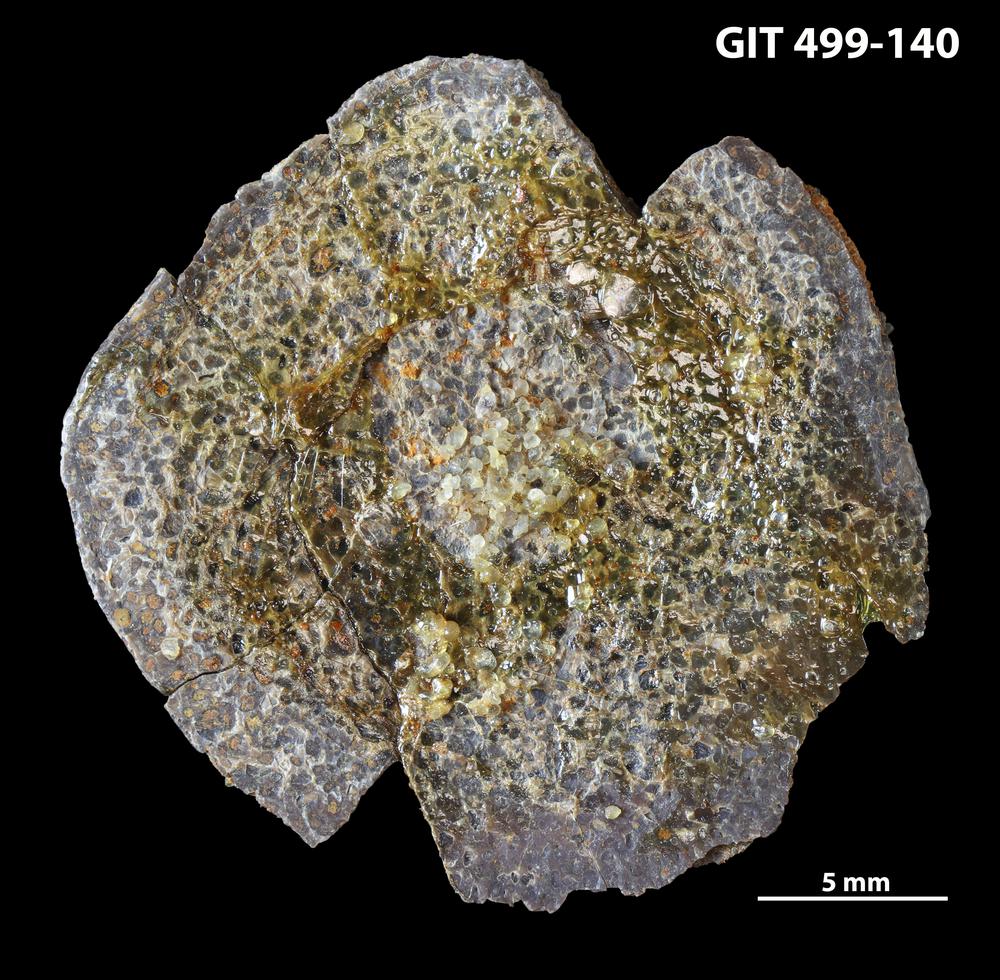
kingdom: Animalia
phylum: Chordata
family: Holoptychiidae
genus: Glyptolepis
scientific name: Glyptolepis
